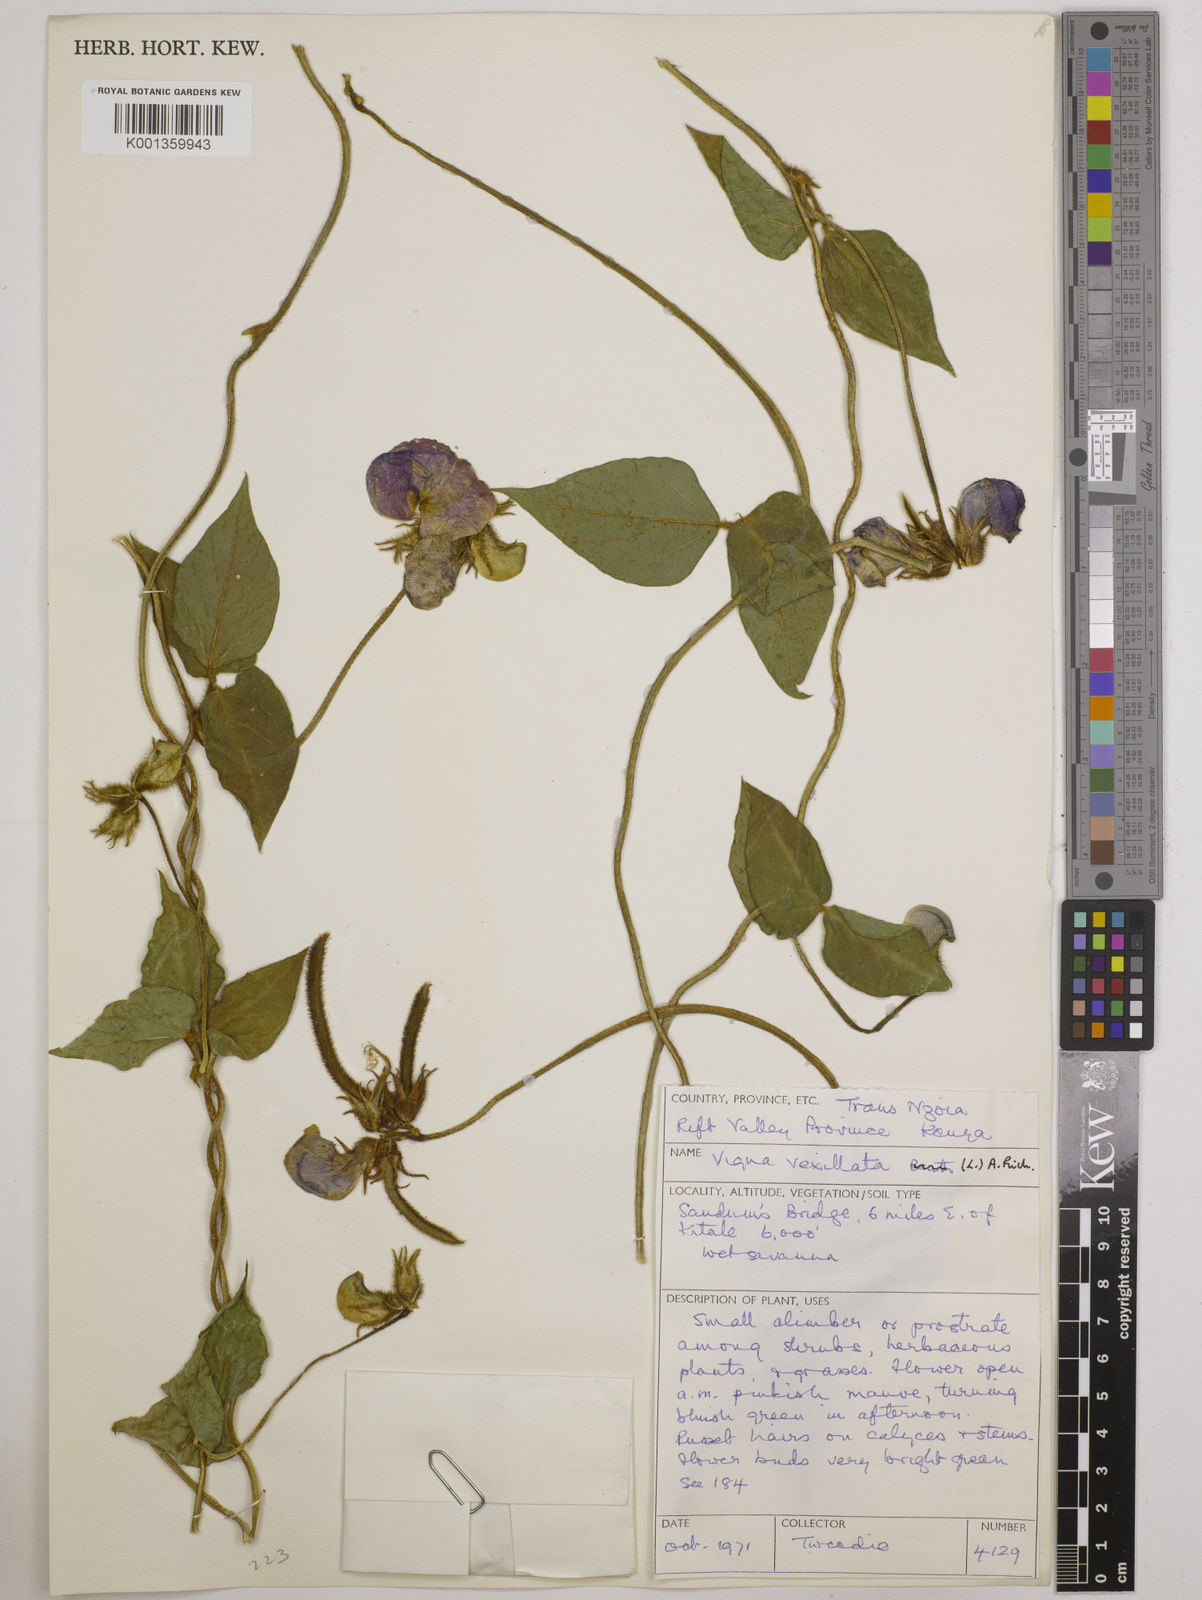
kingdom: Plantae
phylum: Tracheophyta
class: Magnoliopsida
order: Fabales
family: Fabaceae
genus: Vigna
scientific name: Vigna vexillata
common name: Zombi pea
